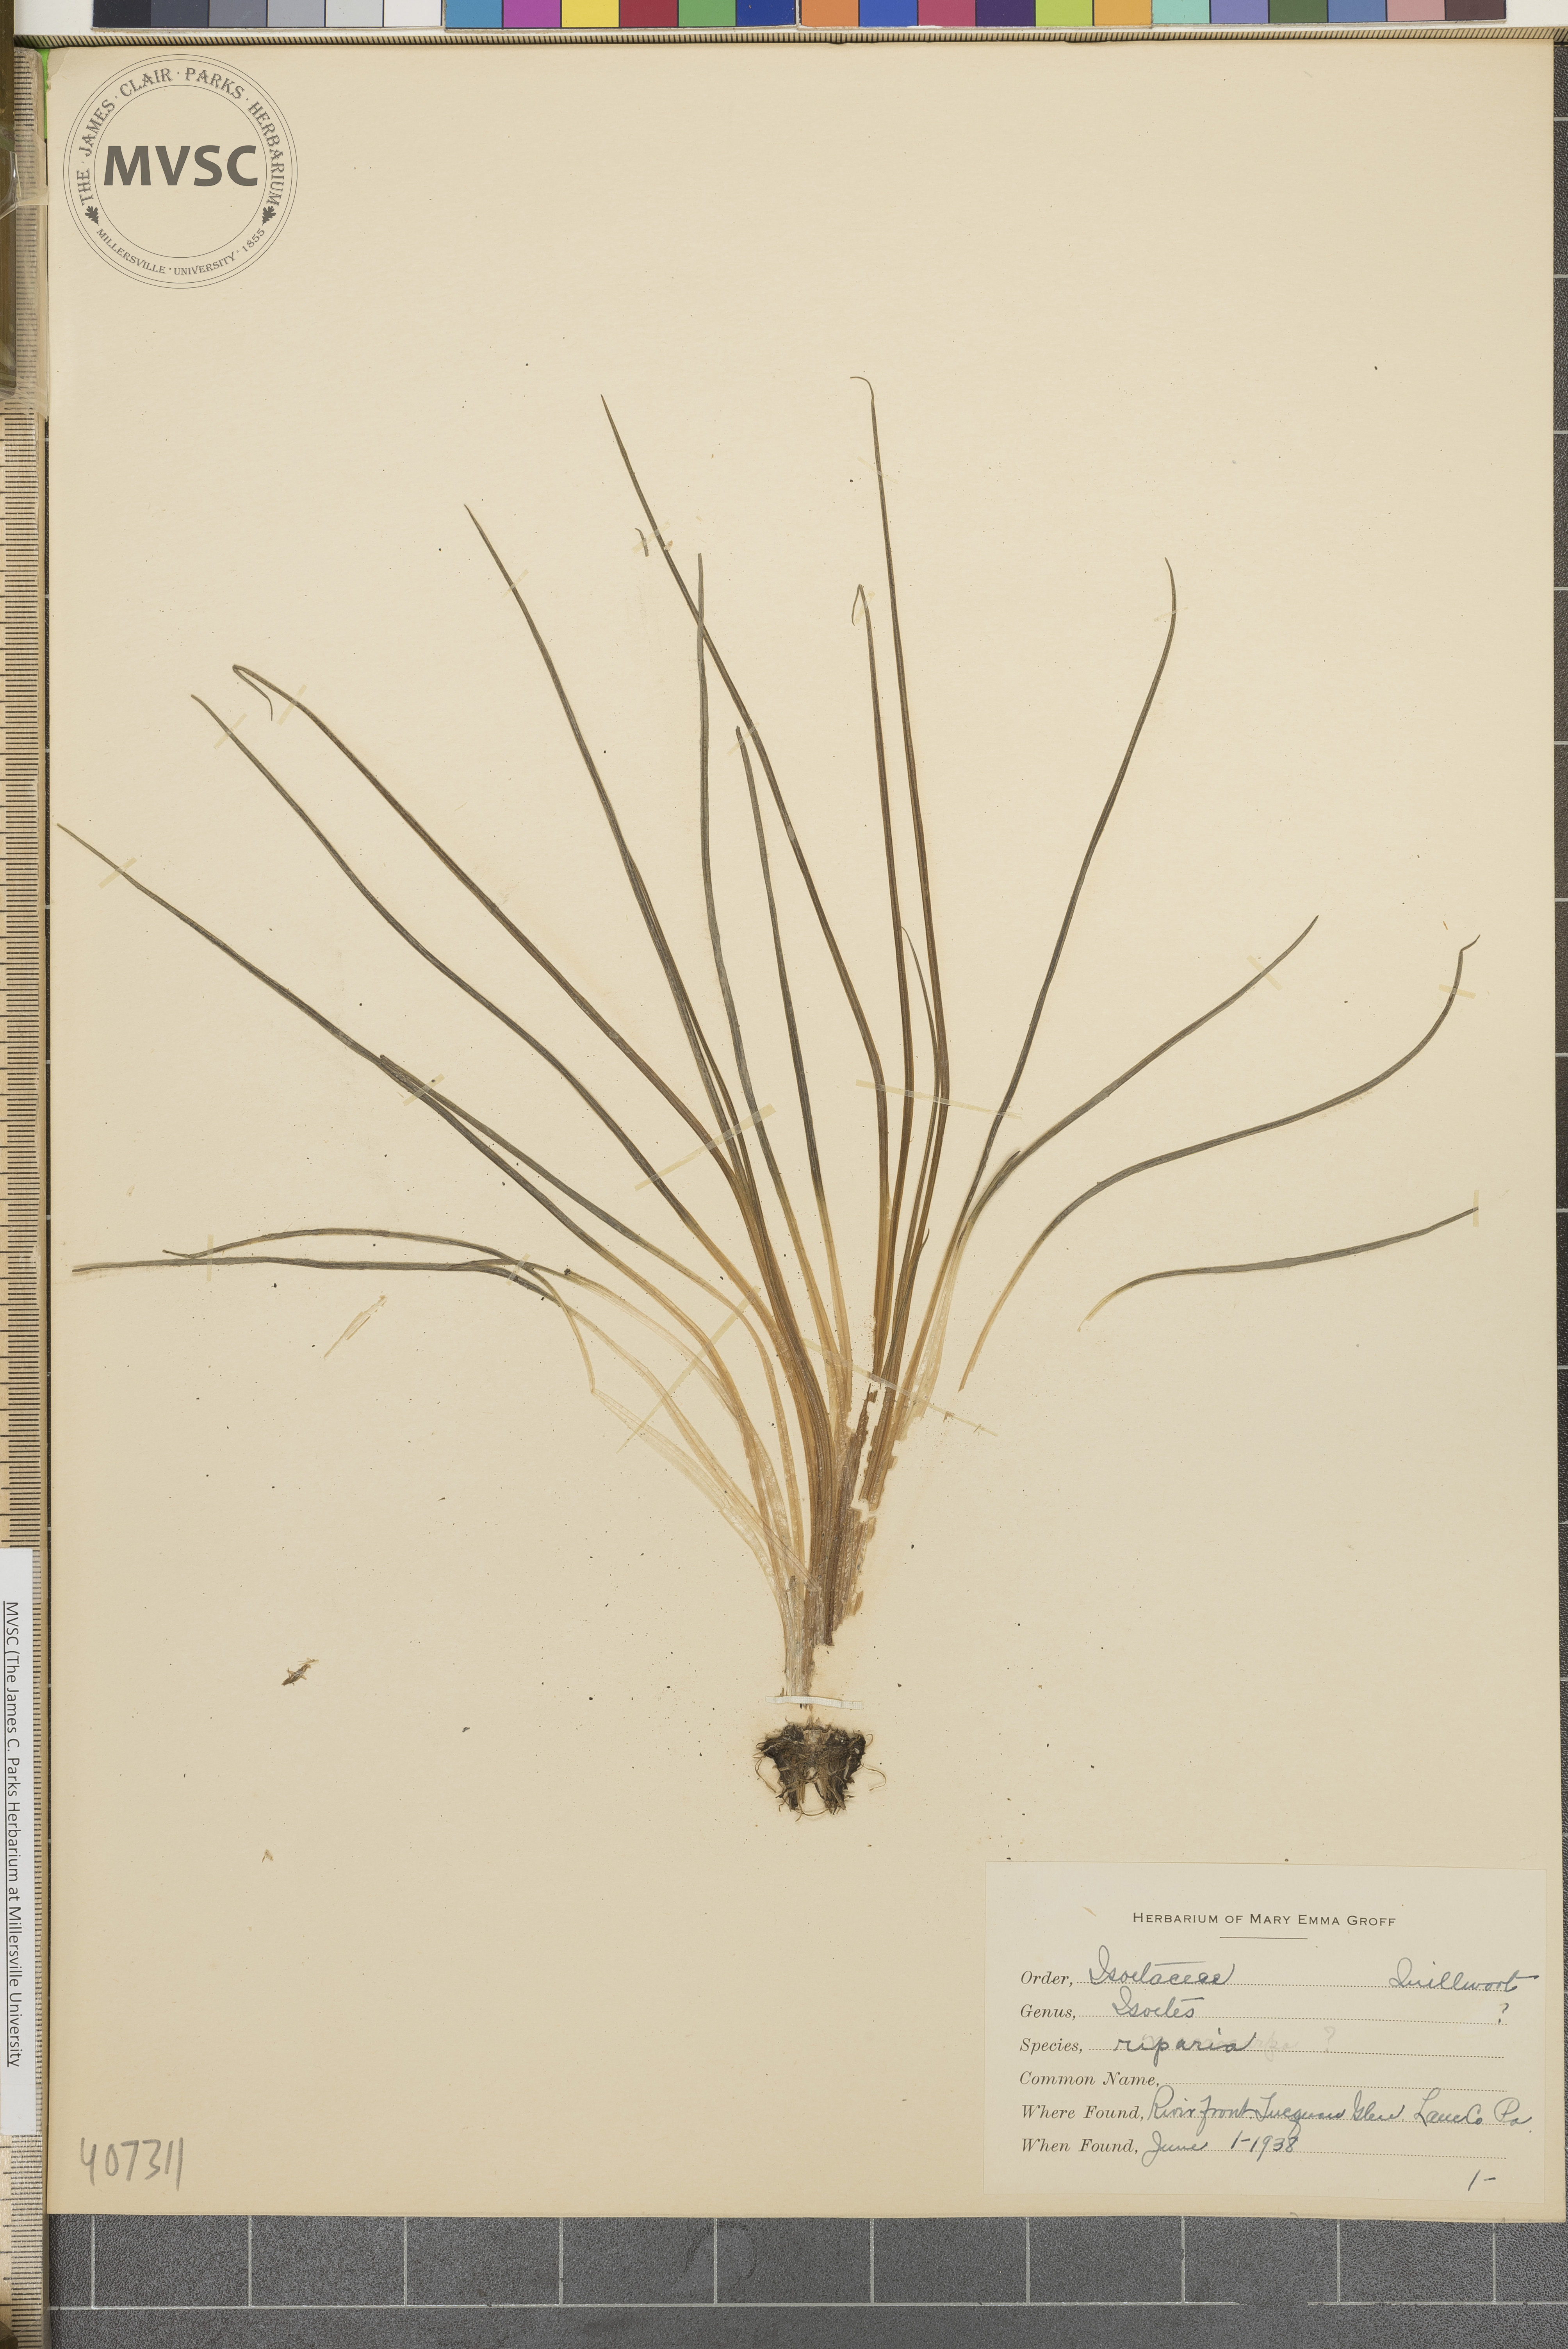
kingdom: Plantae
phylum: Tracheophyta
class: Lycopodiopsida
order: Isoetales
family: Isoetaceae
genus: Isoetes
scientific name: Isoetes riparia
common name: Riverbank quillwort
